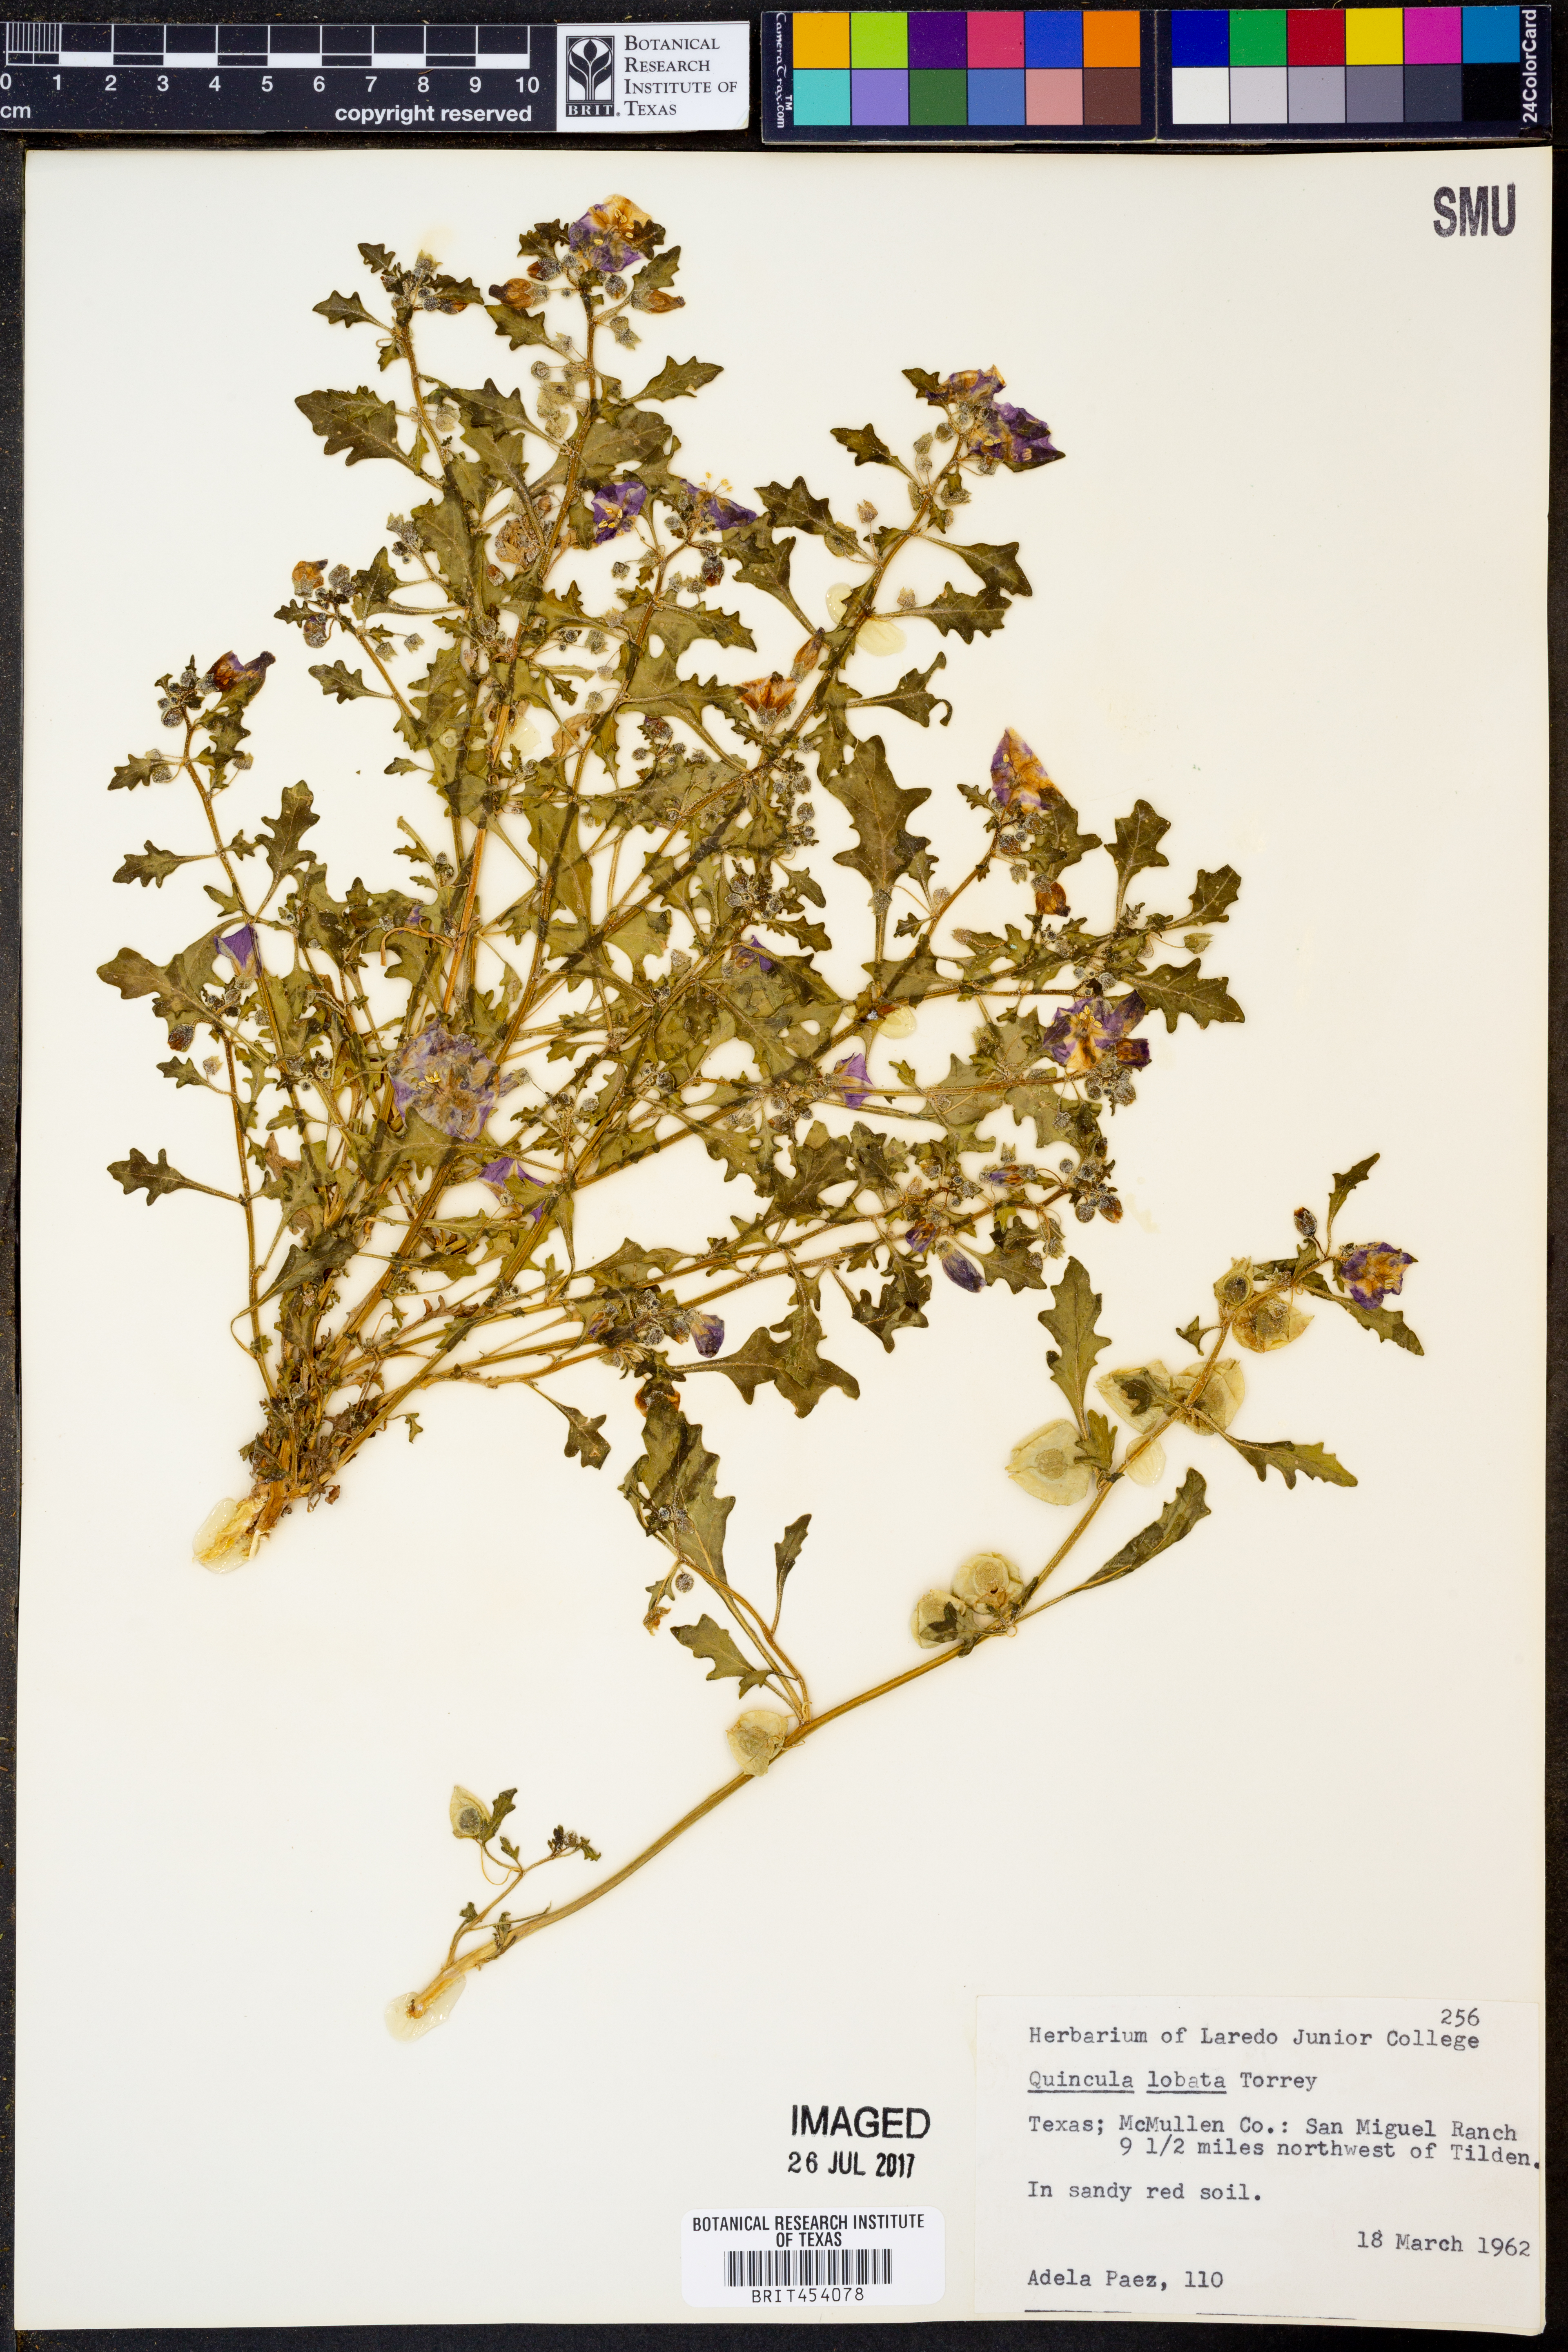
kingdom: Plantae
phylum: Tracheophyta
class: Magnoliopsida
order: Solanales
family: Solanaceae
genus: Quincula
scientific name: Quincula lobata
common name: Purple-ground-cherry
